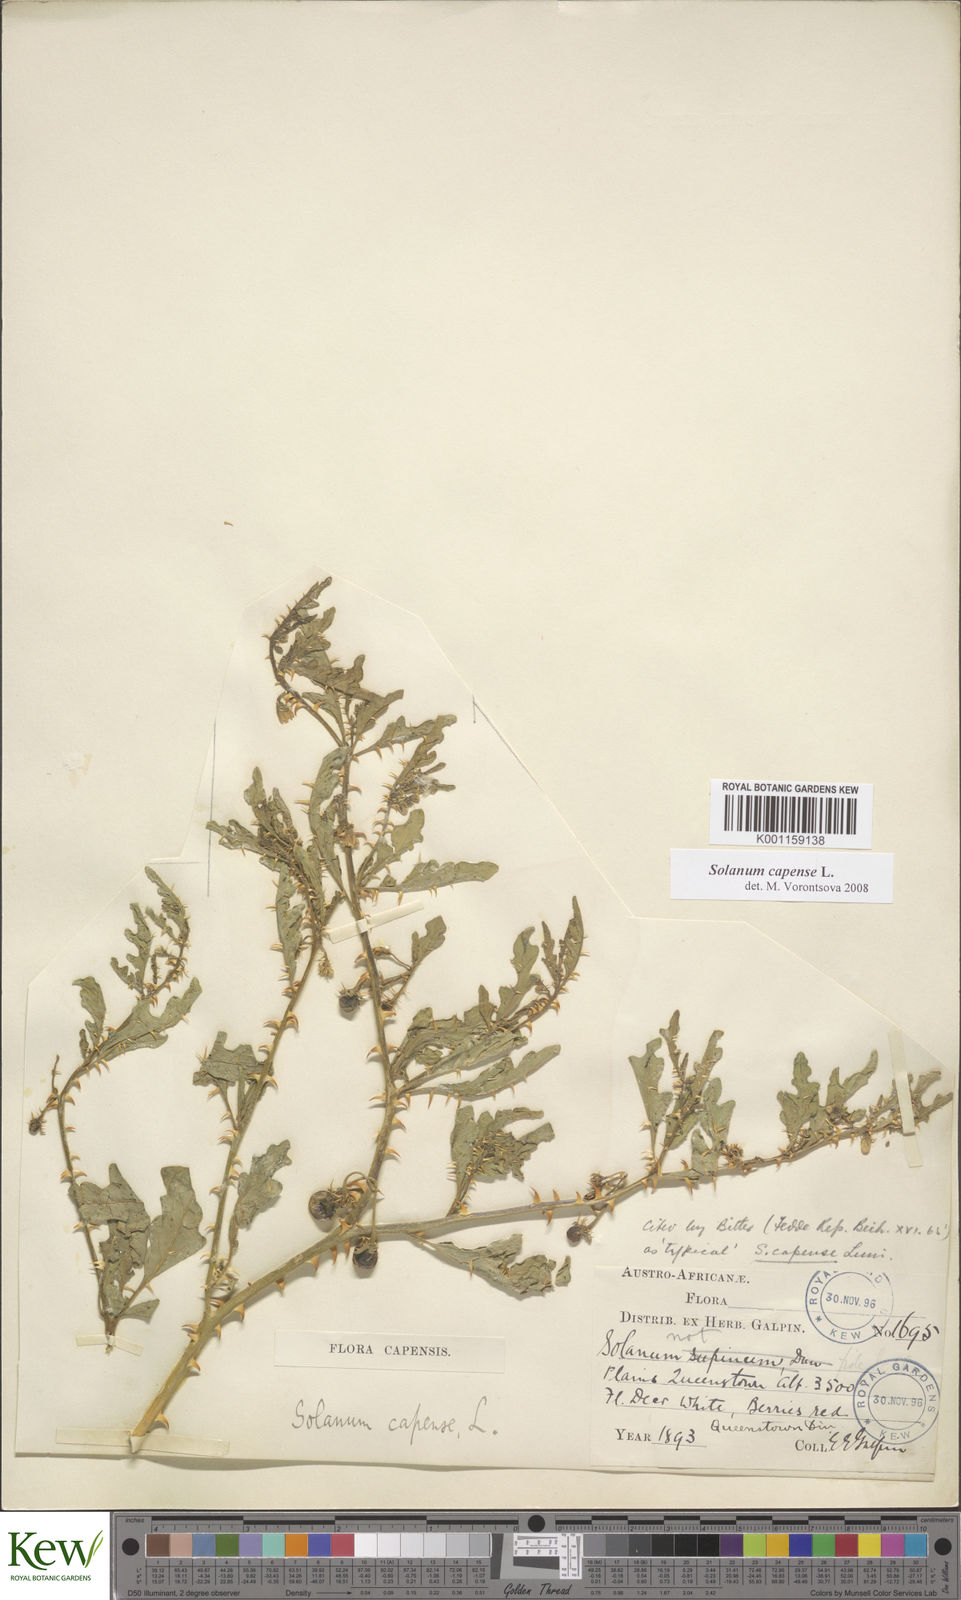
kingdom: Plantae
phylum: Tracheophyta
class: Magnoliopsida
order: Solanales
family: Solanaceae
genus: Solanum
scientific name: Solanum capense
